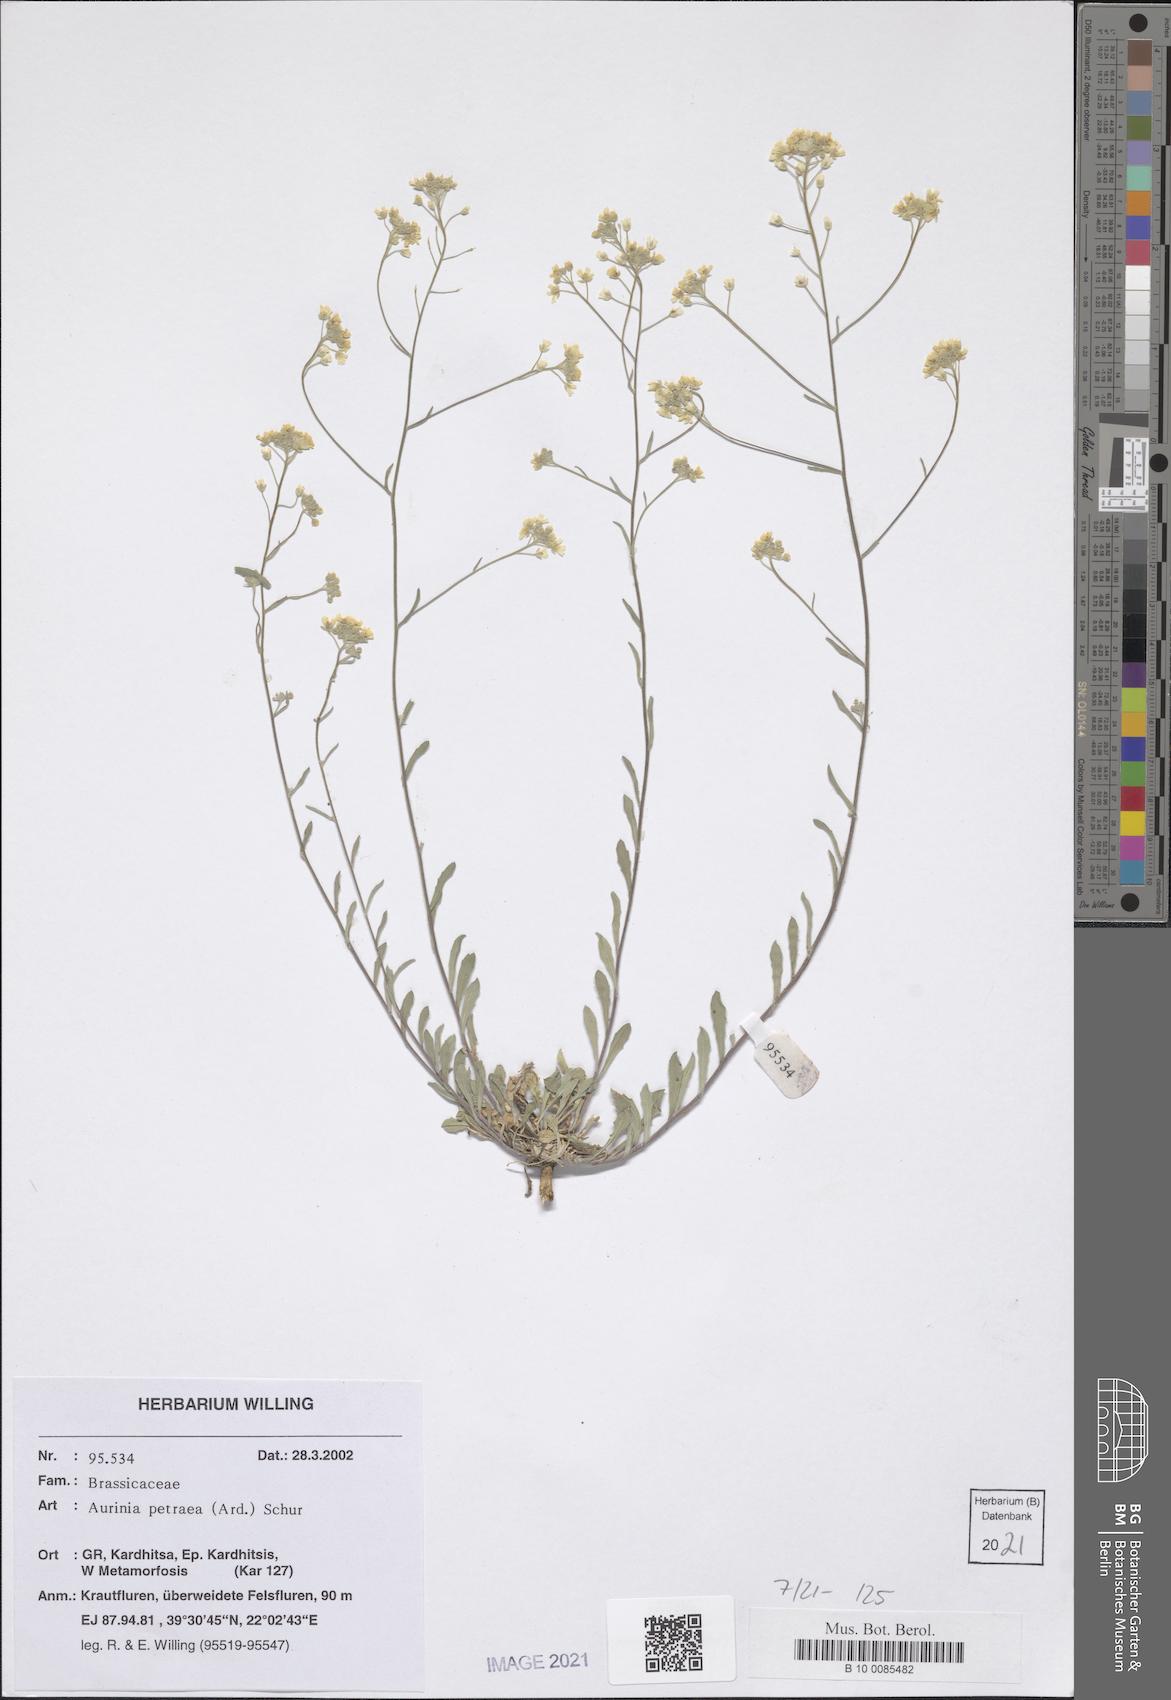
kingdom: Plantae
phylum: Tracheophyta
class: Magnoliopsida
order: Brassicales
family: Brassicaceae
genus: Aurinia
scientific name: Aurinia petraea
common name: Goldentuft
